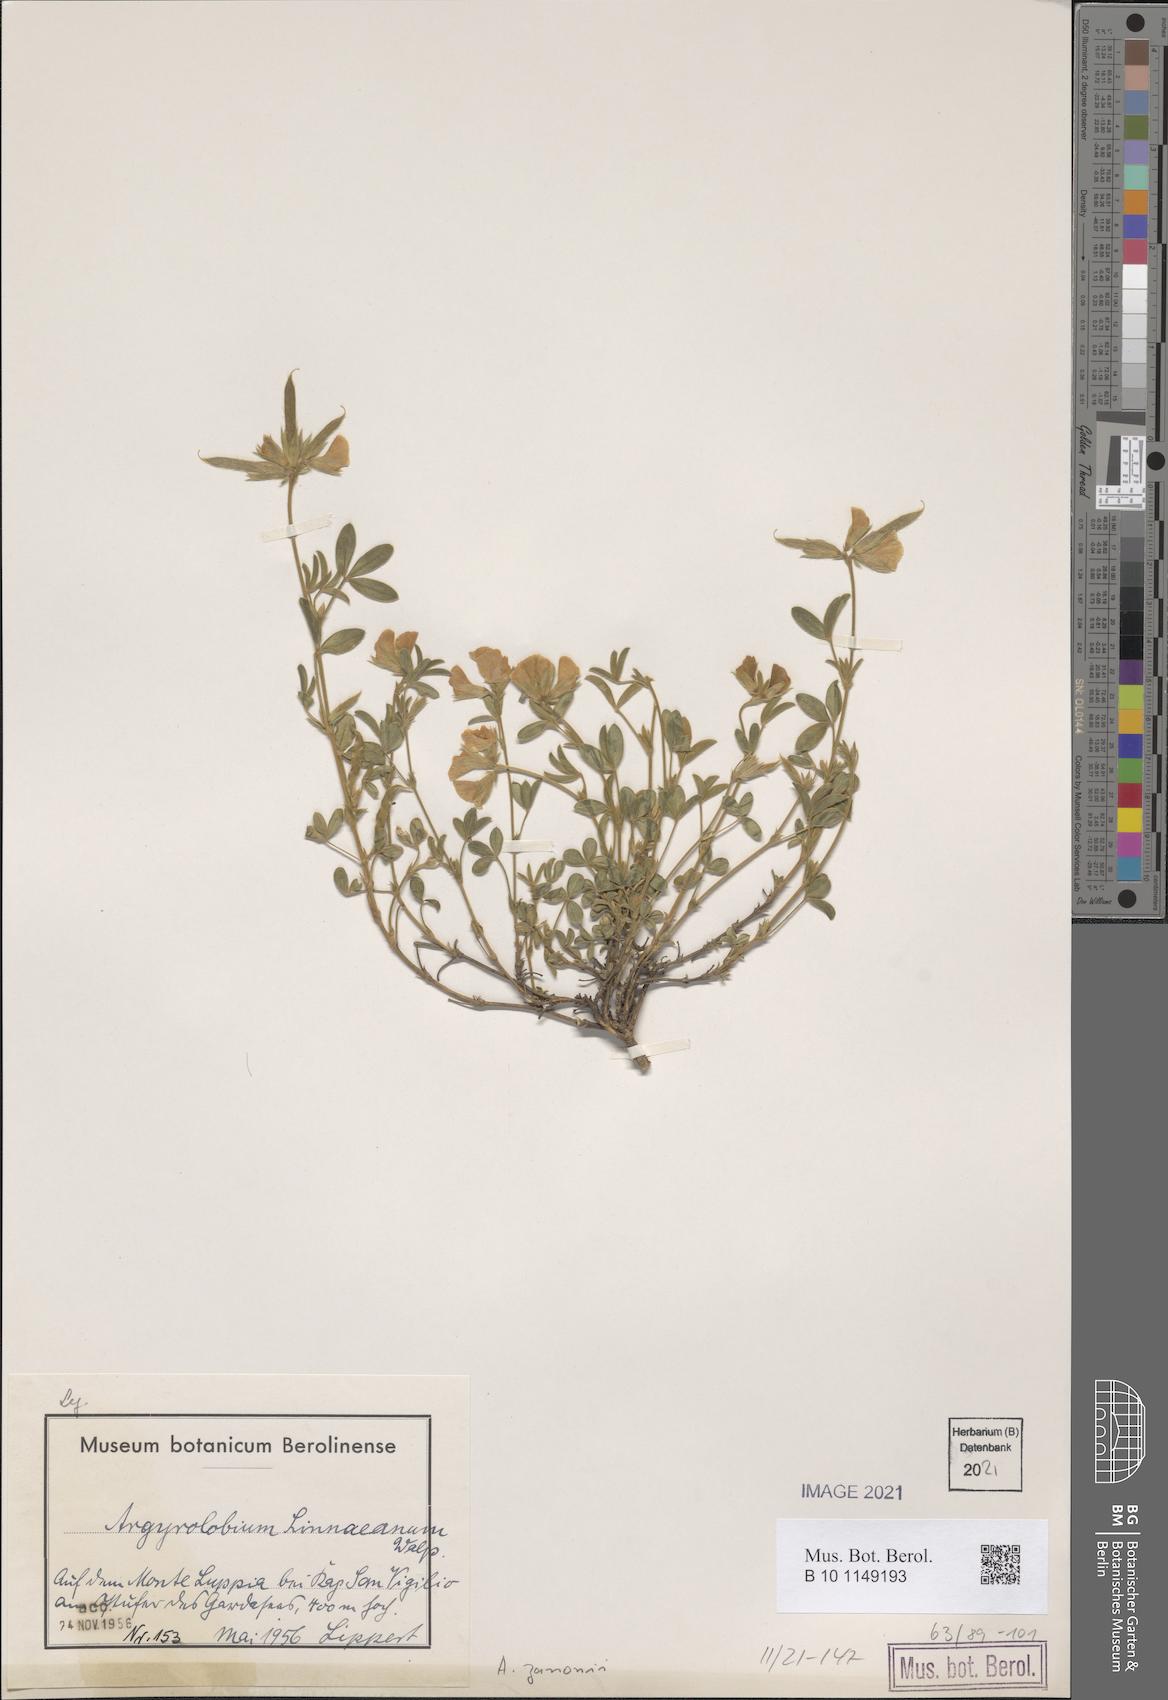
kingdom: Plantae
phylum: Tracheophyta
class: Magnoliopsida
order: Fabales
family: Fabaceae
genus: Argyrolobium
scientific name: Argyrolobium zanonii
